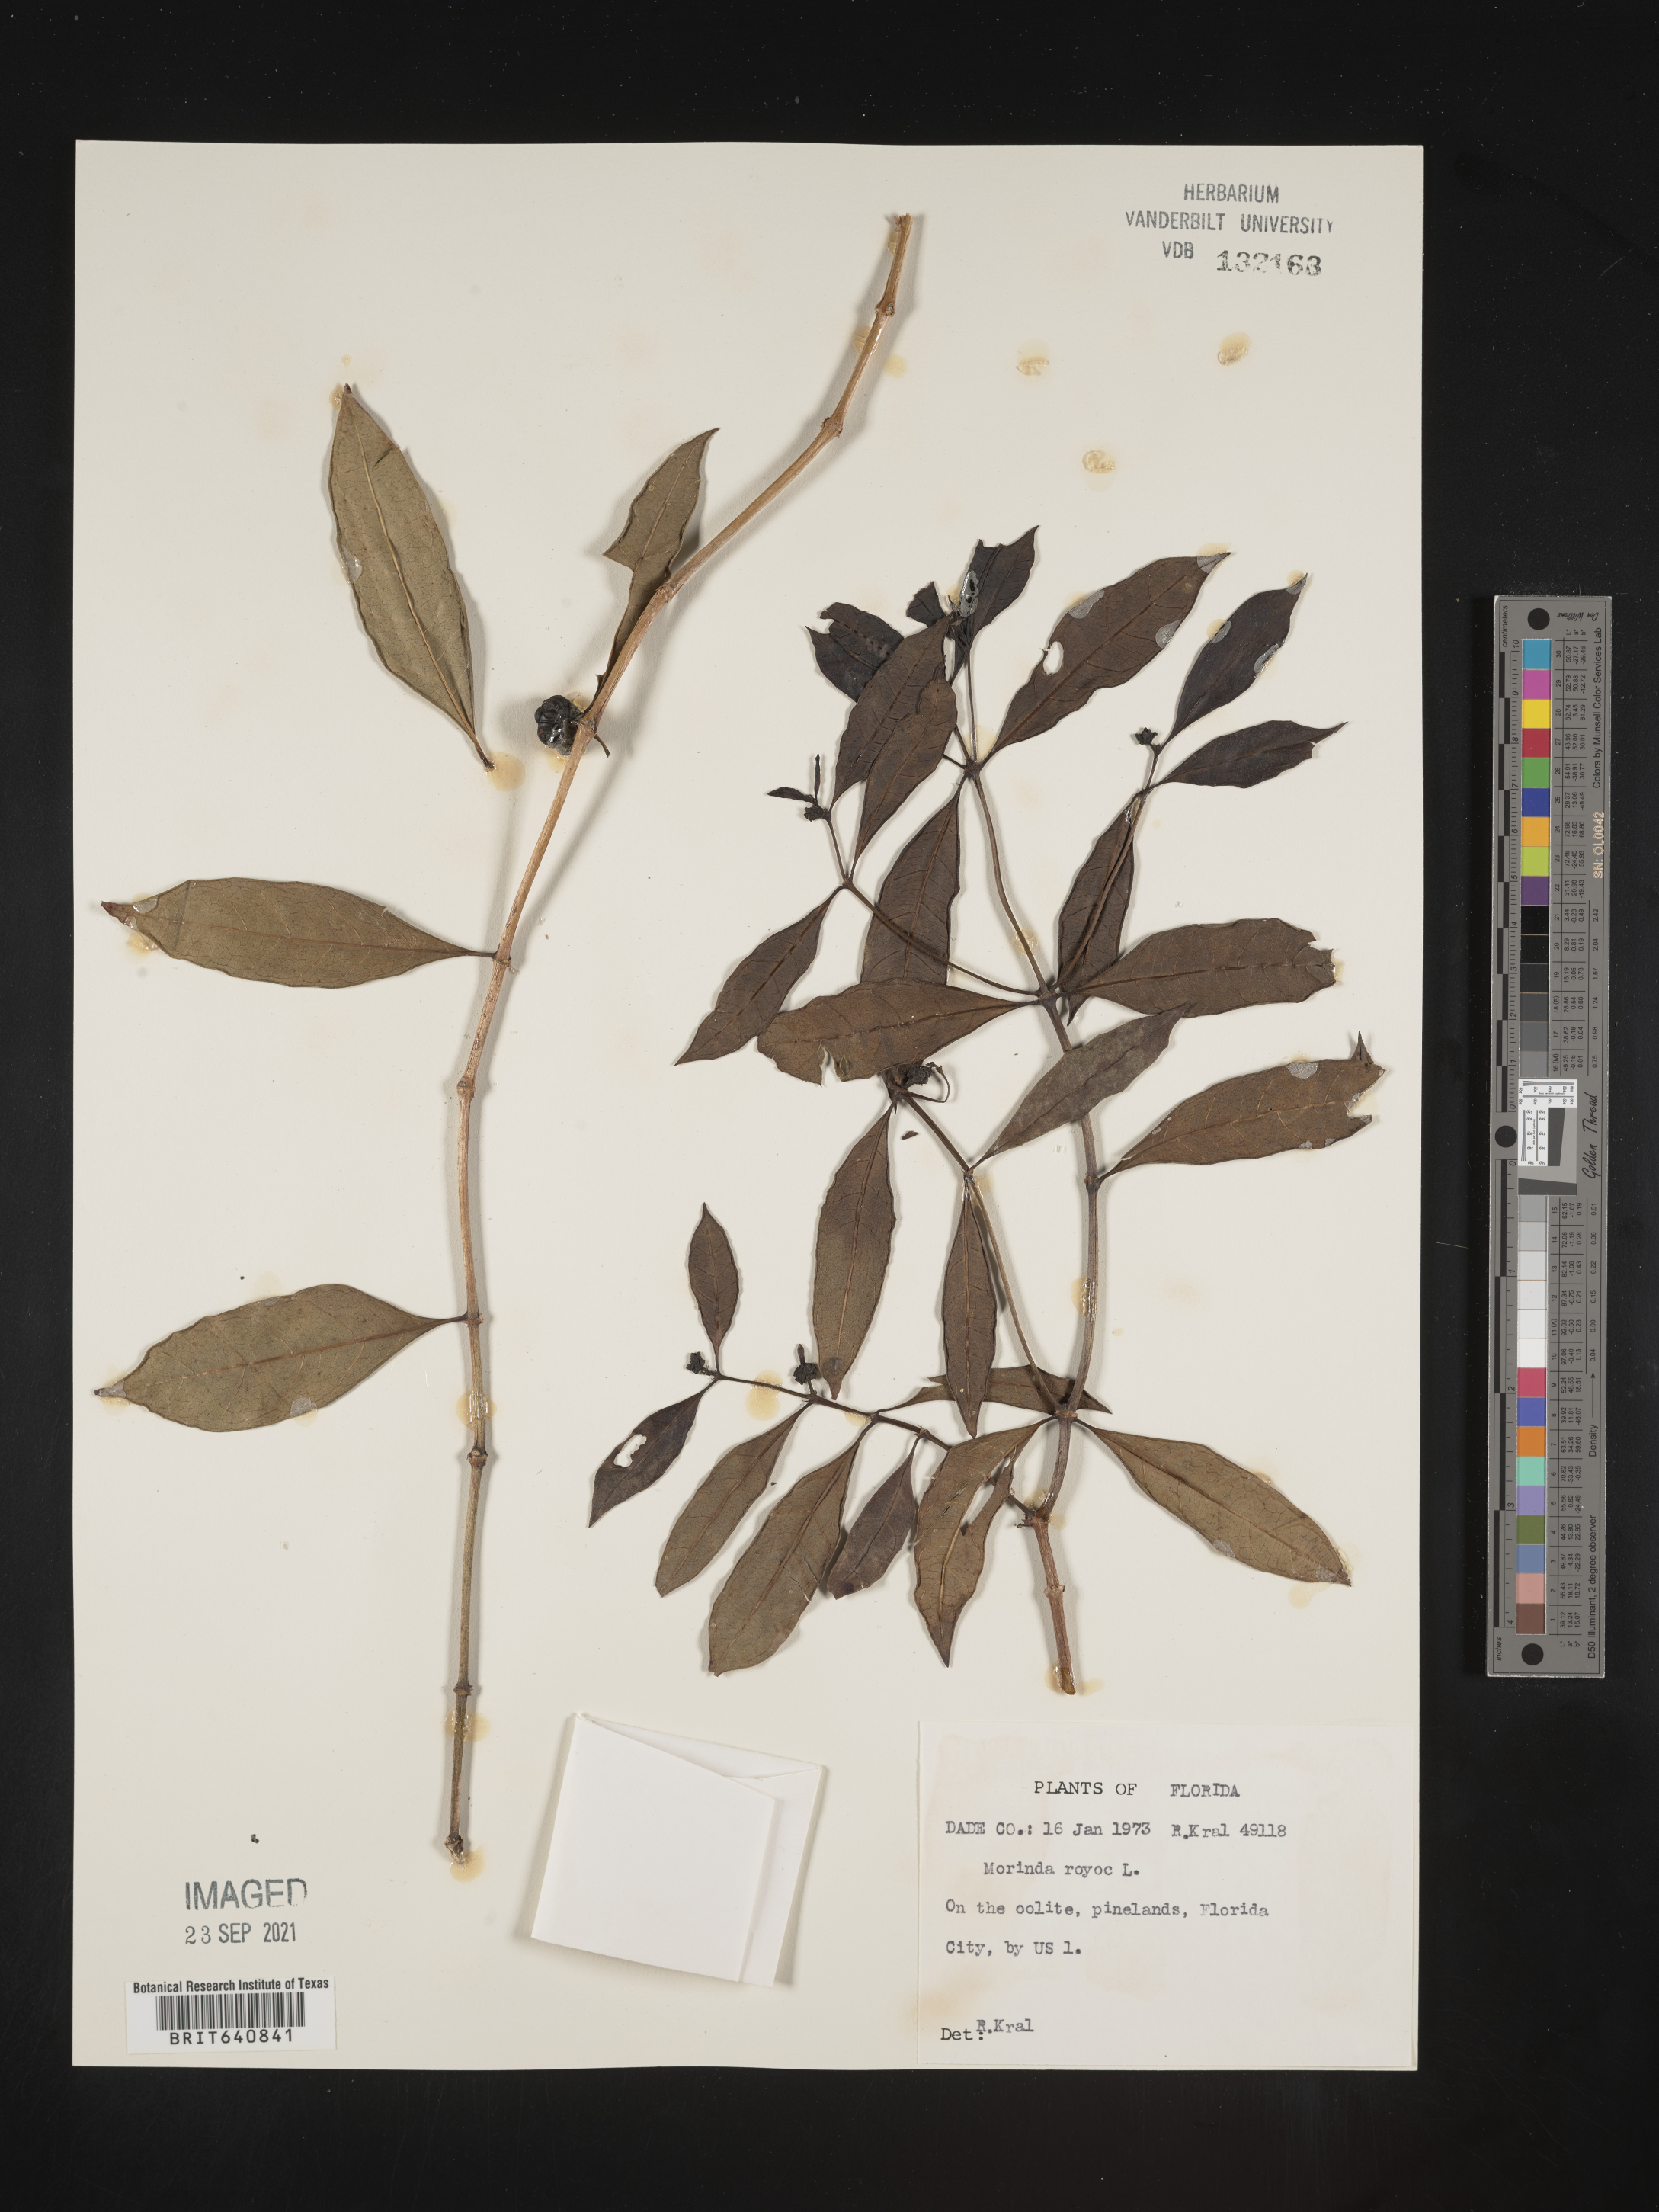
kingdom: Plantae
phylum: Tracheophyta
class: Magnoliopsida
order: Gentianales
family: Rubiaceae
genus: Morinda
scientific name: Morinda royoc
